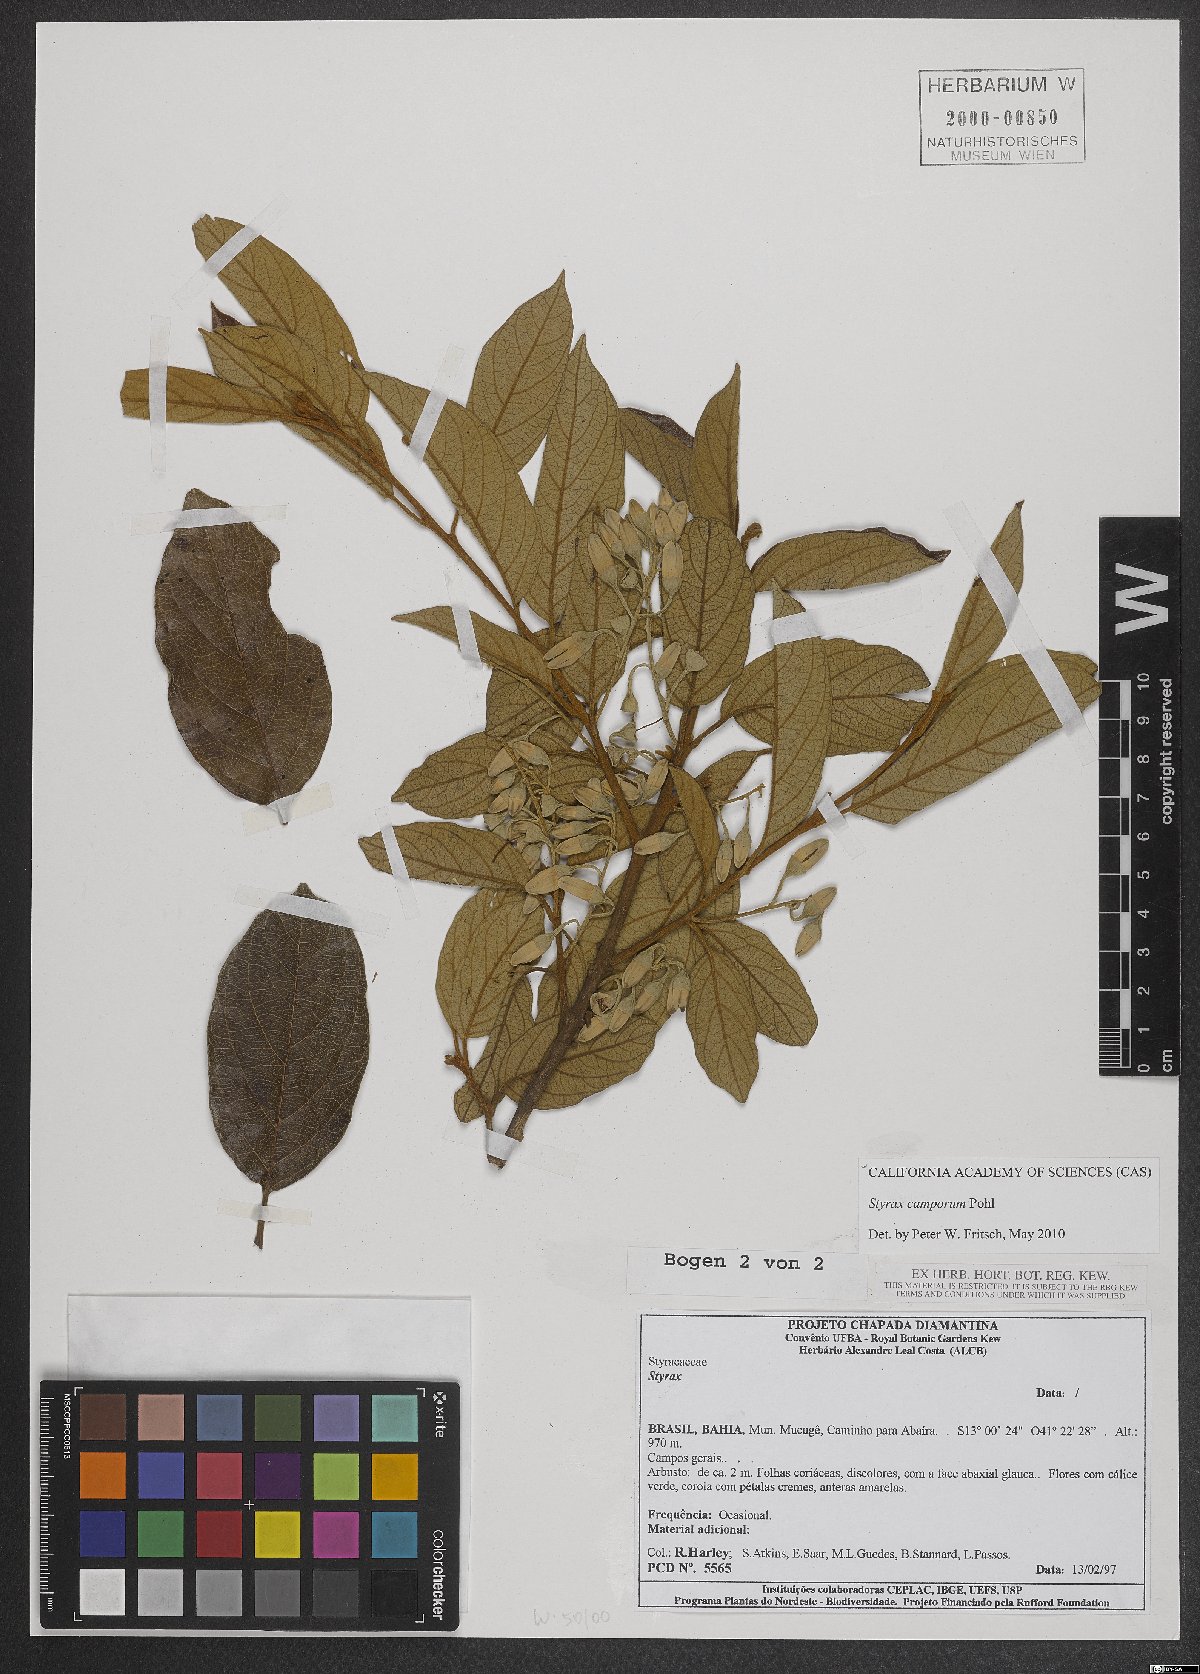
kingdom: Plantae
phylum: Tracheophyta
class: Magnoliopsida
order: Ericales
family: Styracaceae
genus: Styrax
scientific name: Styrax camporum
